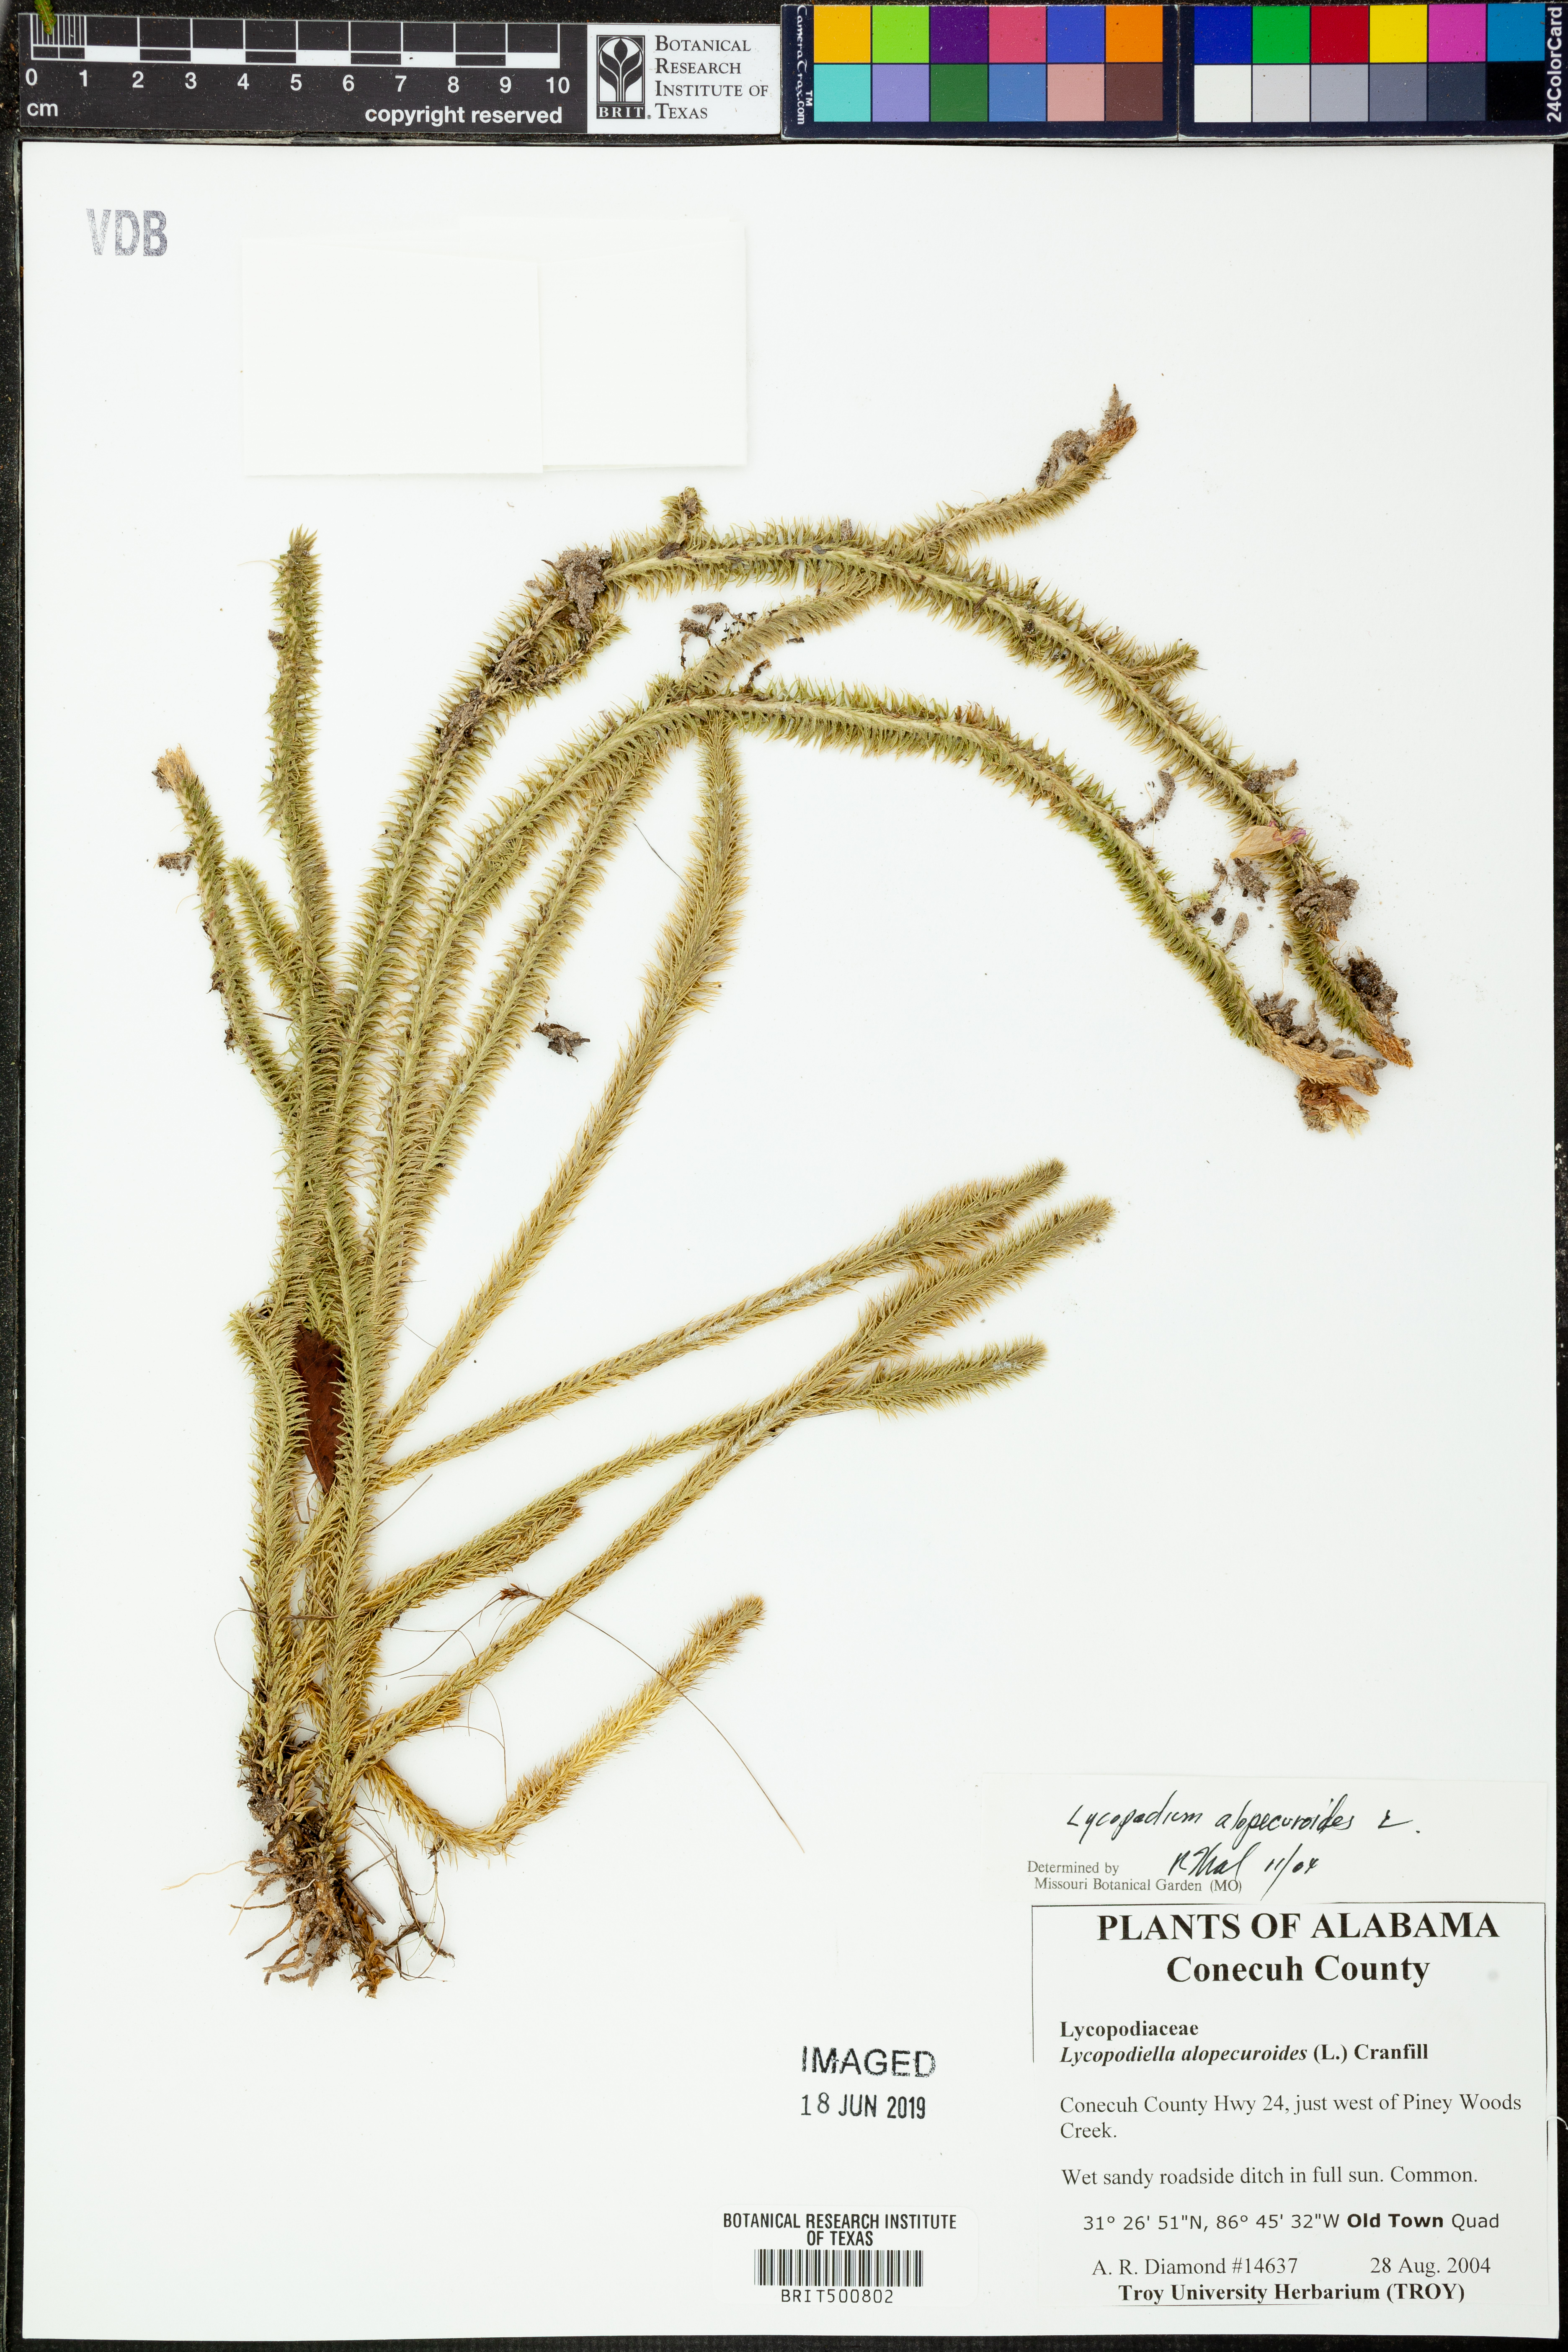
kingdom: Plantae
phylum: Tracheophyta
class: Lycopodiopsida
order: Lycopodiales
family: Lycopodiaceae
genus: Lycopodiella
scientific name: Lycopodiella alopecuroides
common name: Foxtail clubmoss
